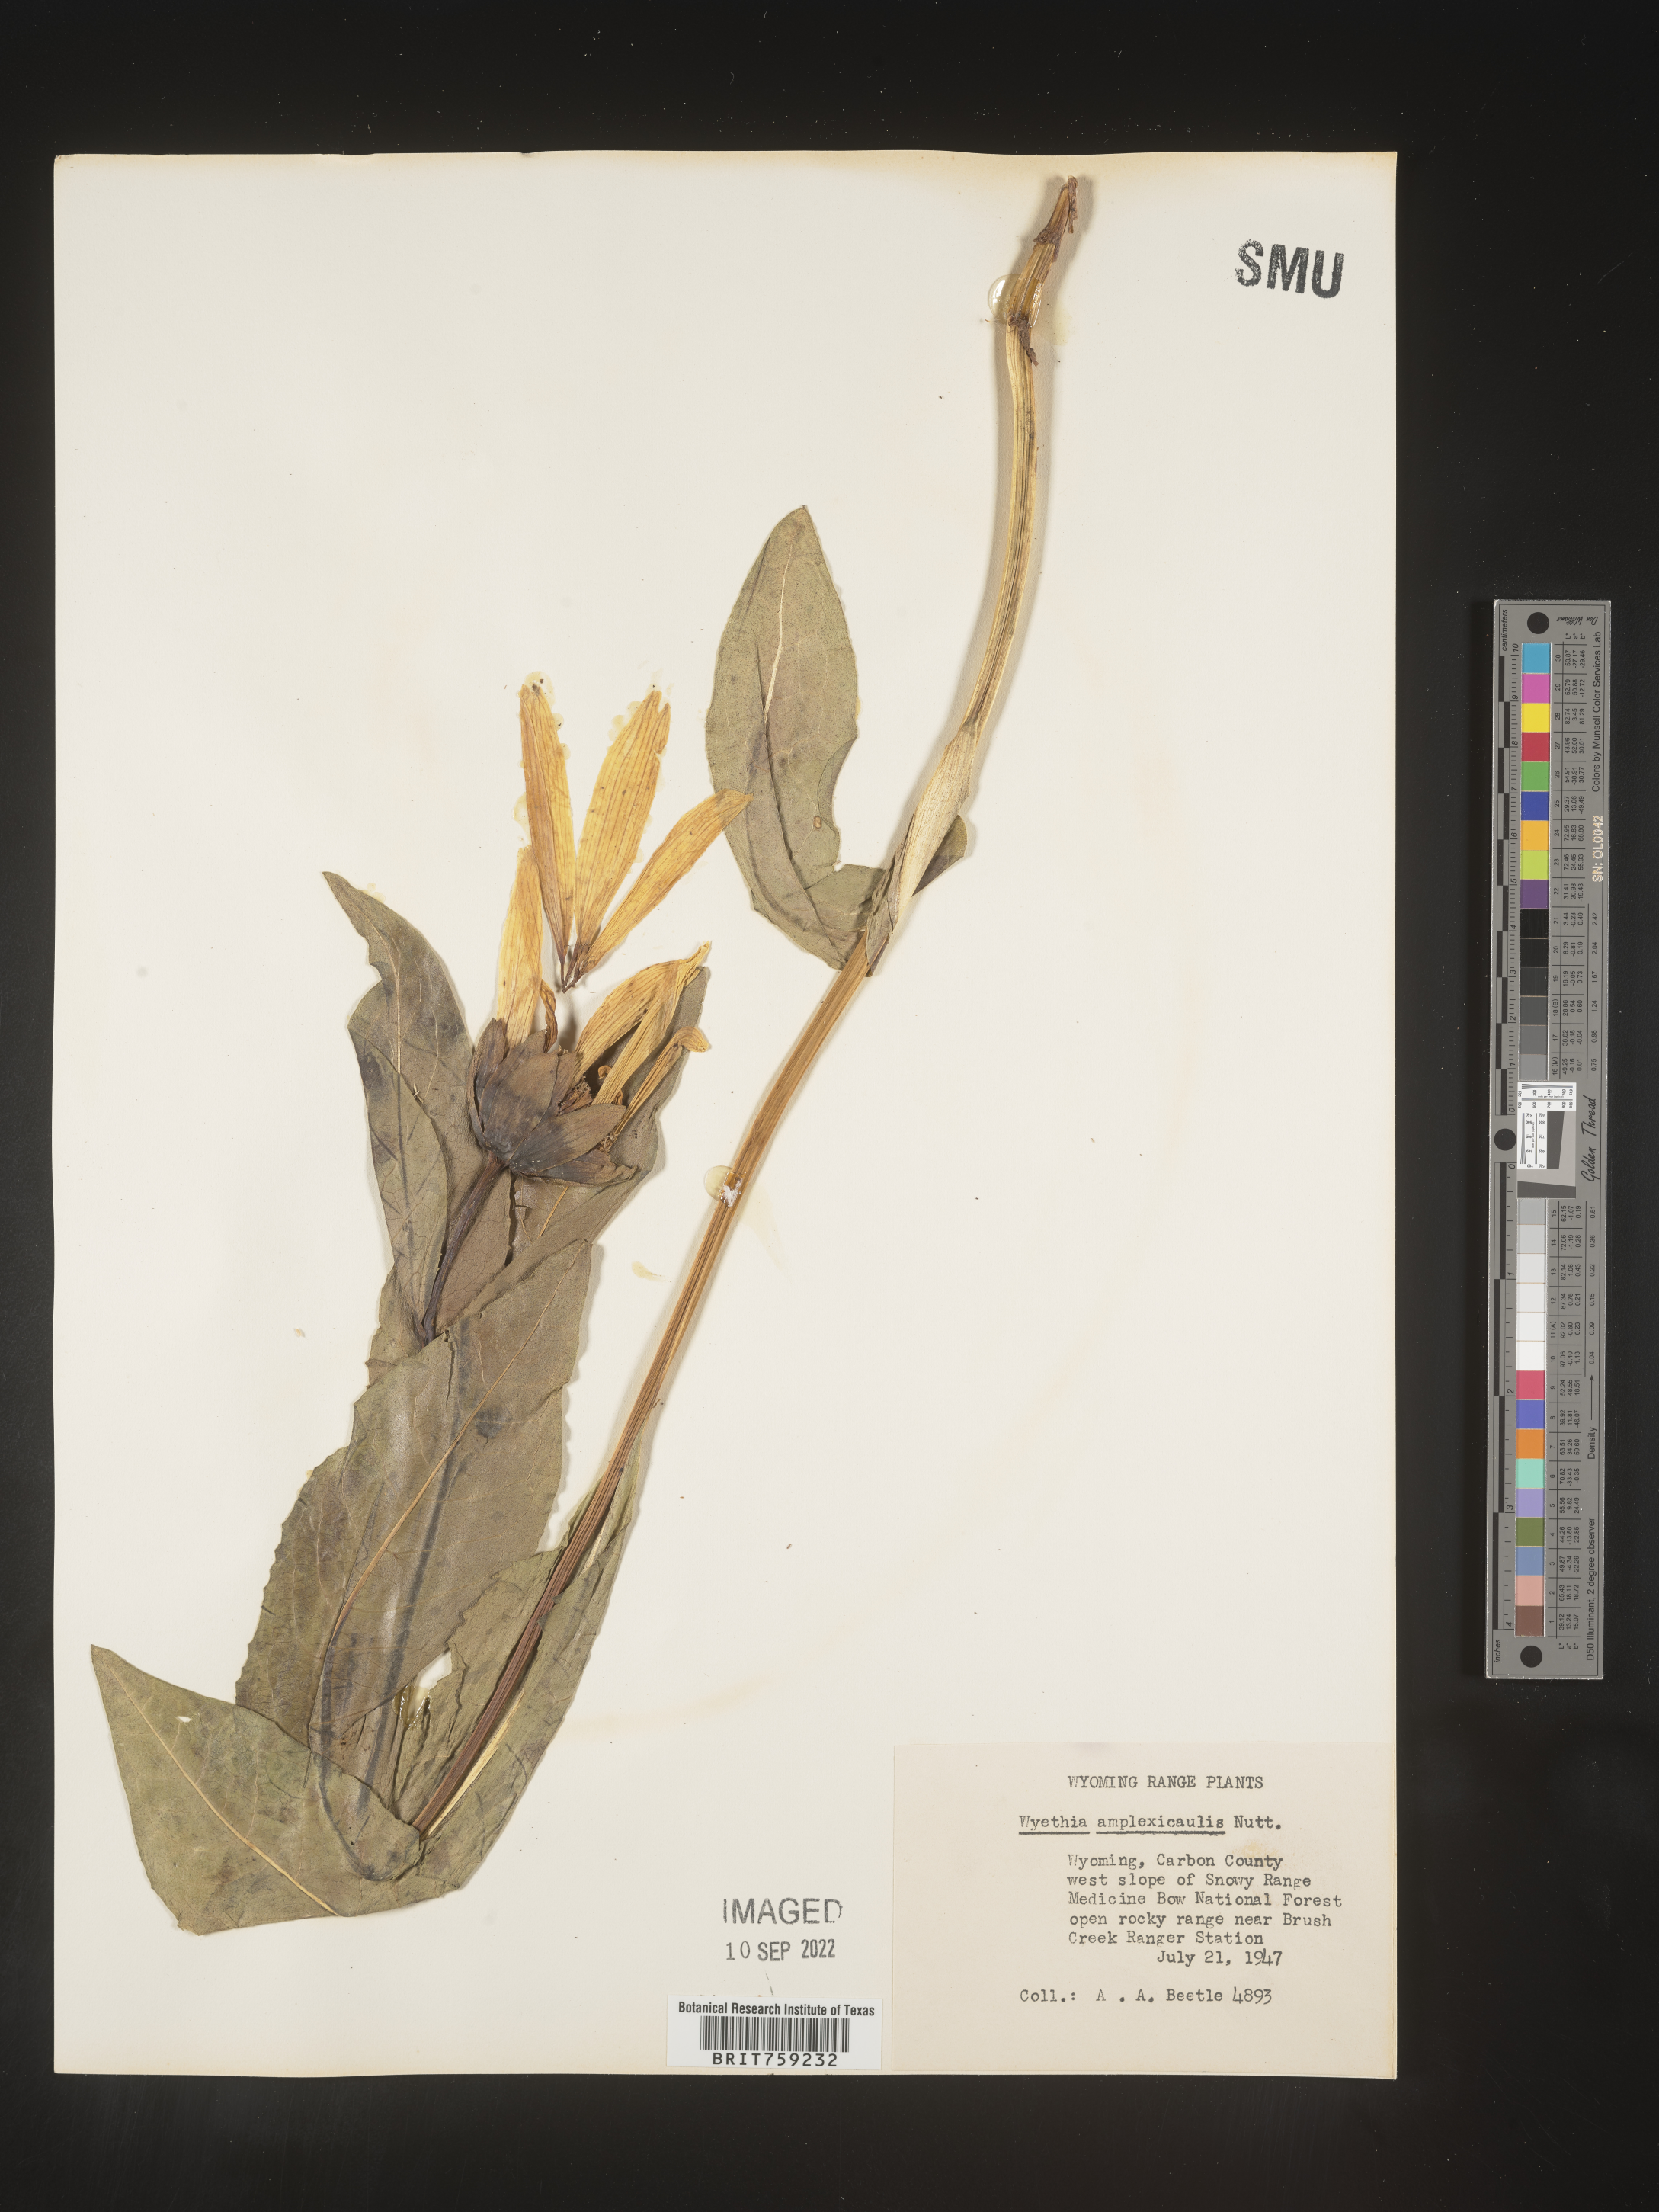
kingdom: Plantae
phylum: Tracheophyta
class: Magnoliopsida
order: Asterales
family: Asteraceae
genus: Wyethia
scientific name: Wyethia amplexicaulis
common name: Northern mule's-ears
